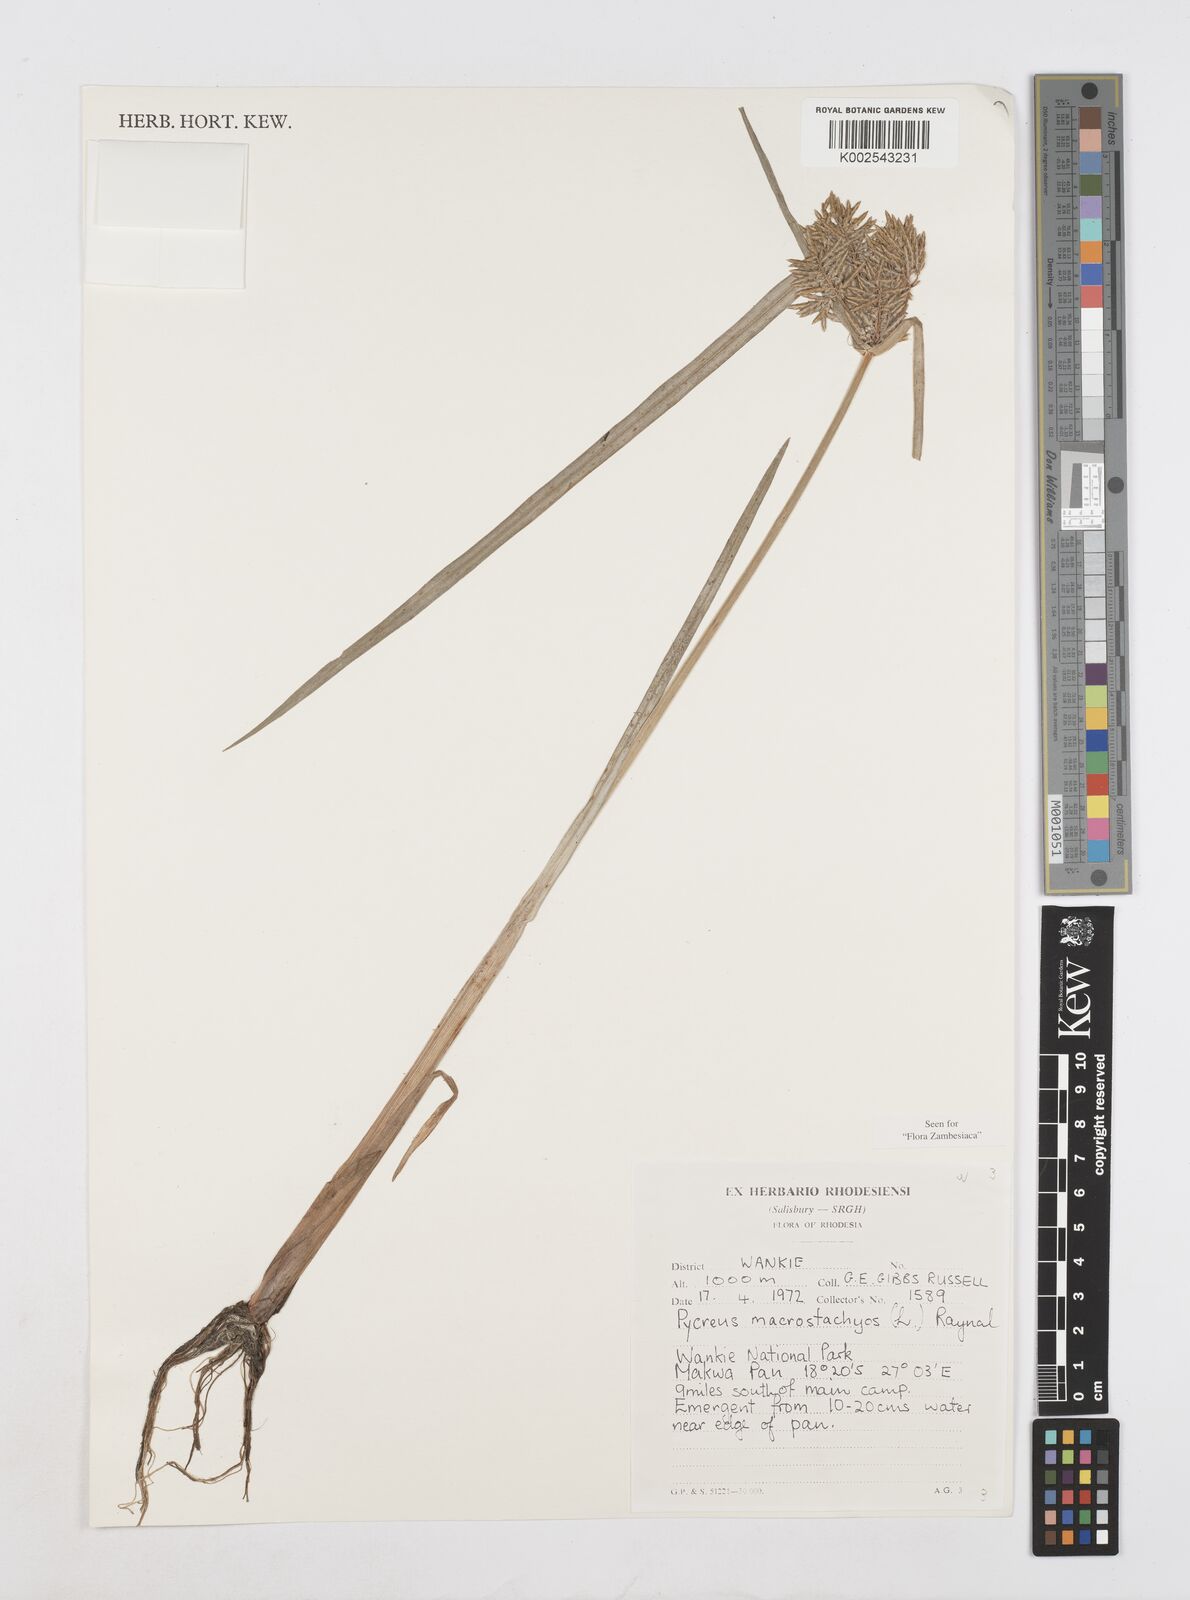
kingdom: Plantae
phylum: Tracheophyta
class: Liliopsida
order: Poales
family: Cyperaceae
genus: Cyperus
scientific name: Cyperus macrostachyos
